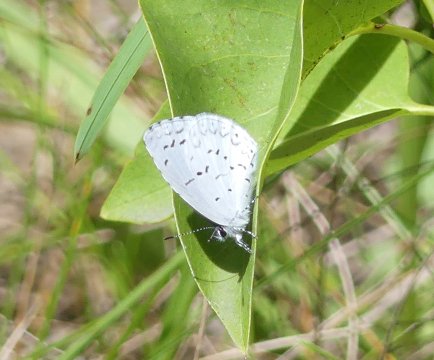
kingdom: Animalia
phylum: Arthropoda
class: Insecta
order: Lepidoptera
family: Lycaenidae
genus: Cyaniris
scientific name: Cyaniris neglecta
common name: Summer Azure
